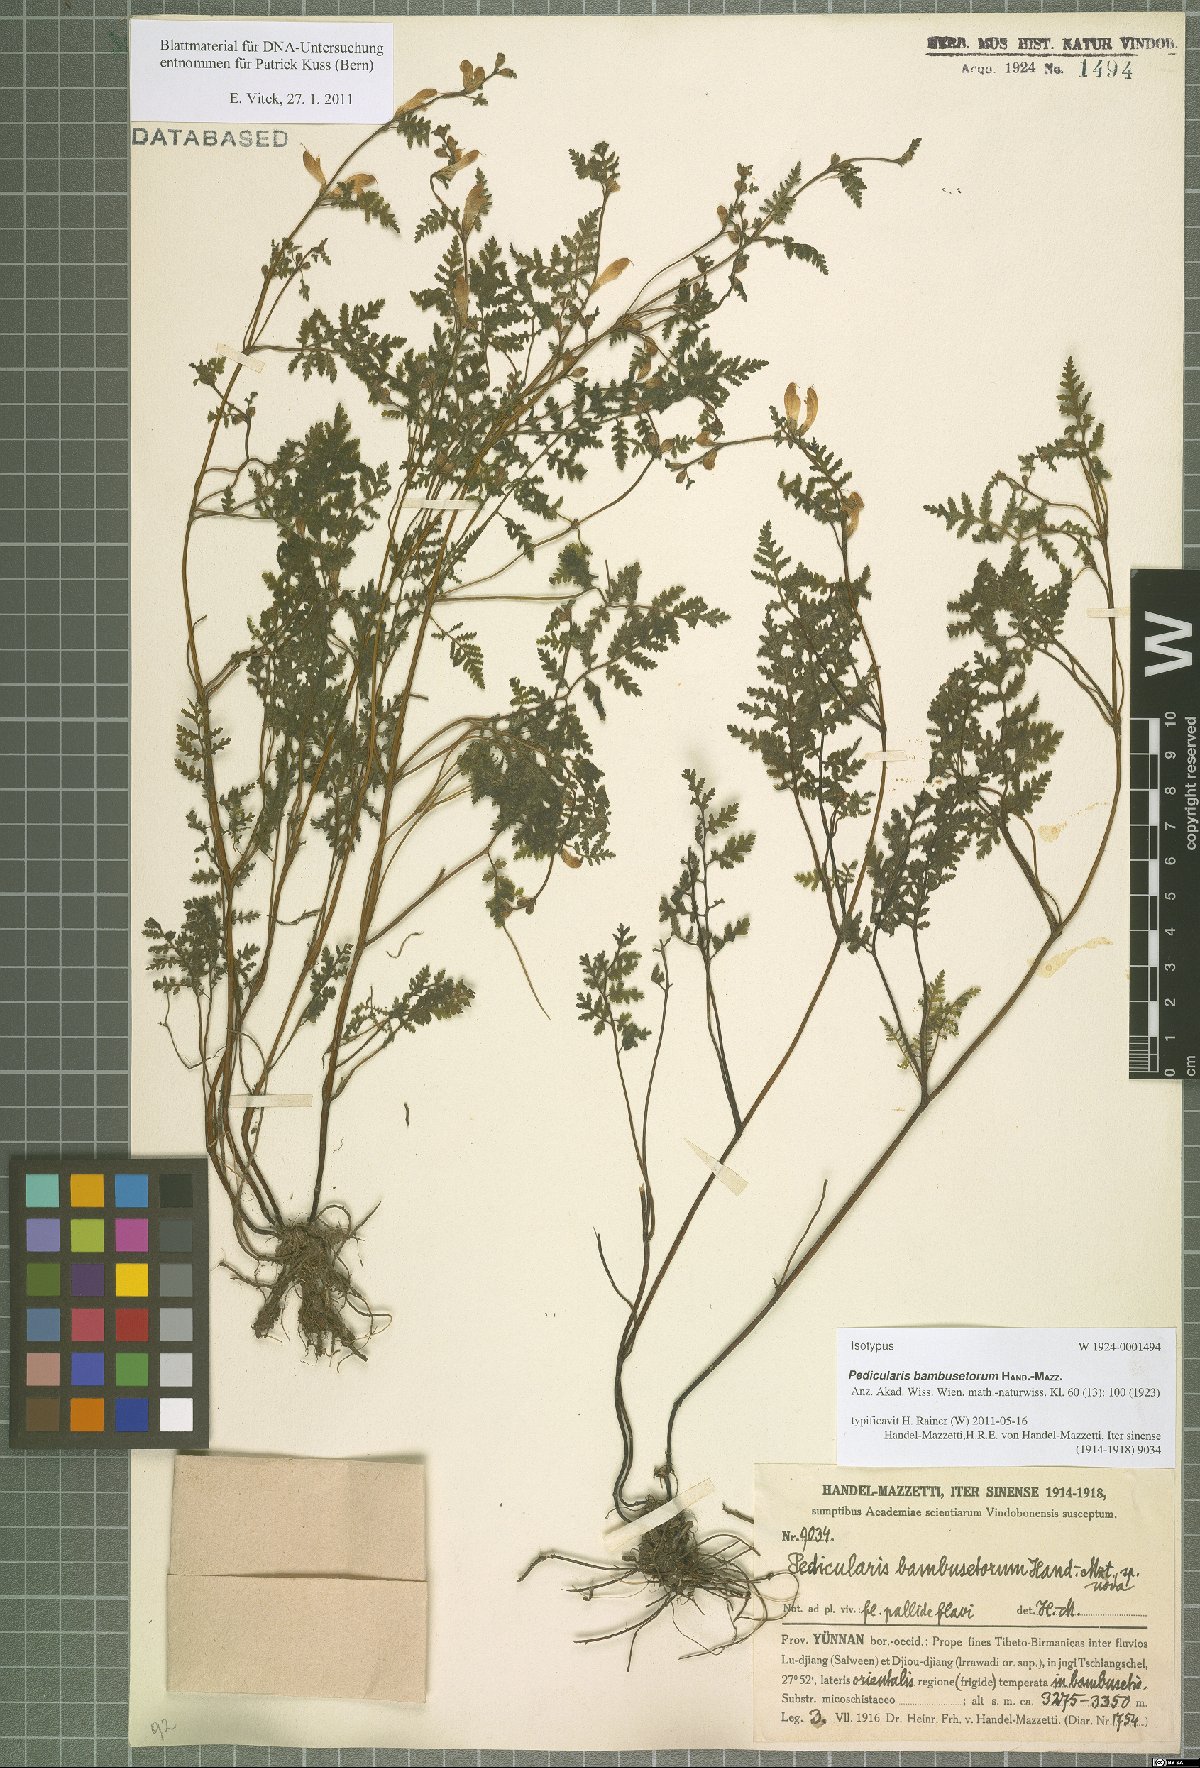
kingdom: Plantae
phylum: Tracheophyta
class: Magnoliopsida
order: Lamiales
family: Orobanchaceae
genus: Pedicularis
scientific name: Pedicularis bambusetorum
